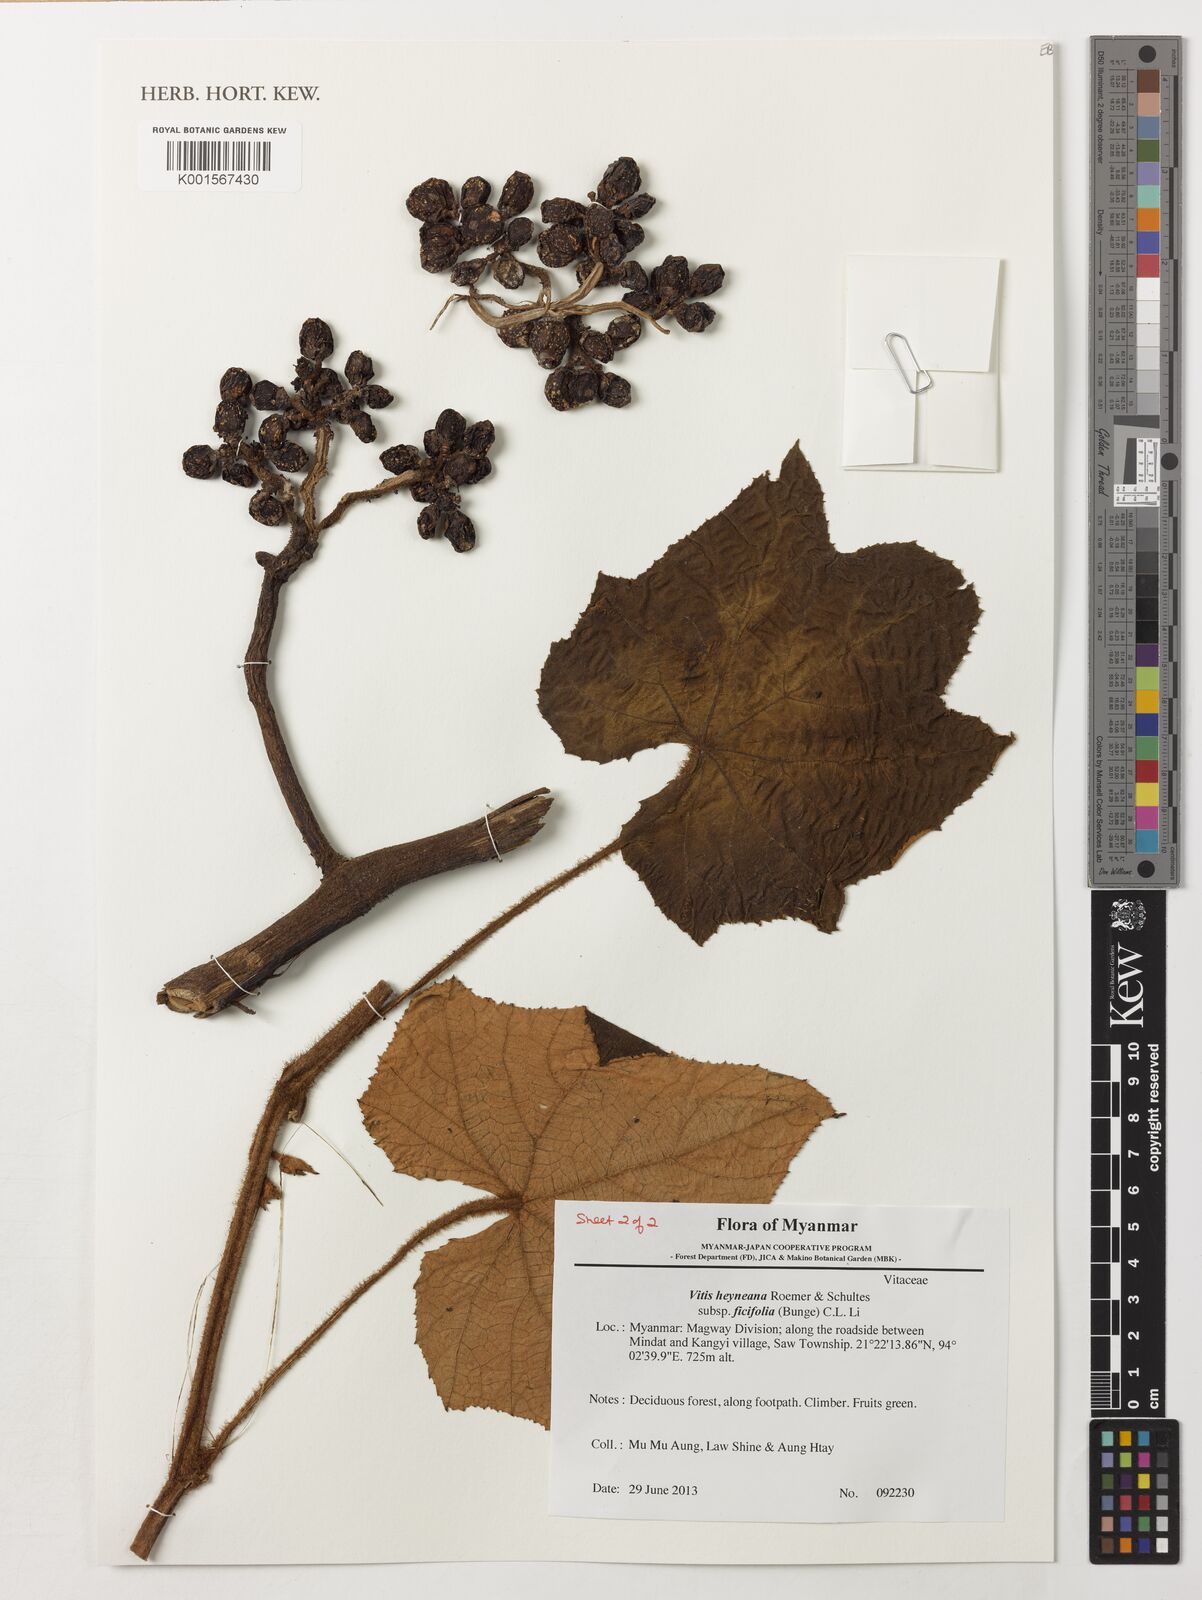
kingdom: Plantae
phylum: Tracheophyta
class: Magnoliopsida
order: Vitales
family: Vitaceae
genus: Vitis
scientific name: Vitis ficifolia
